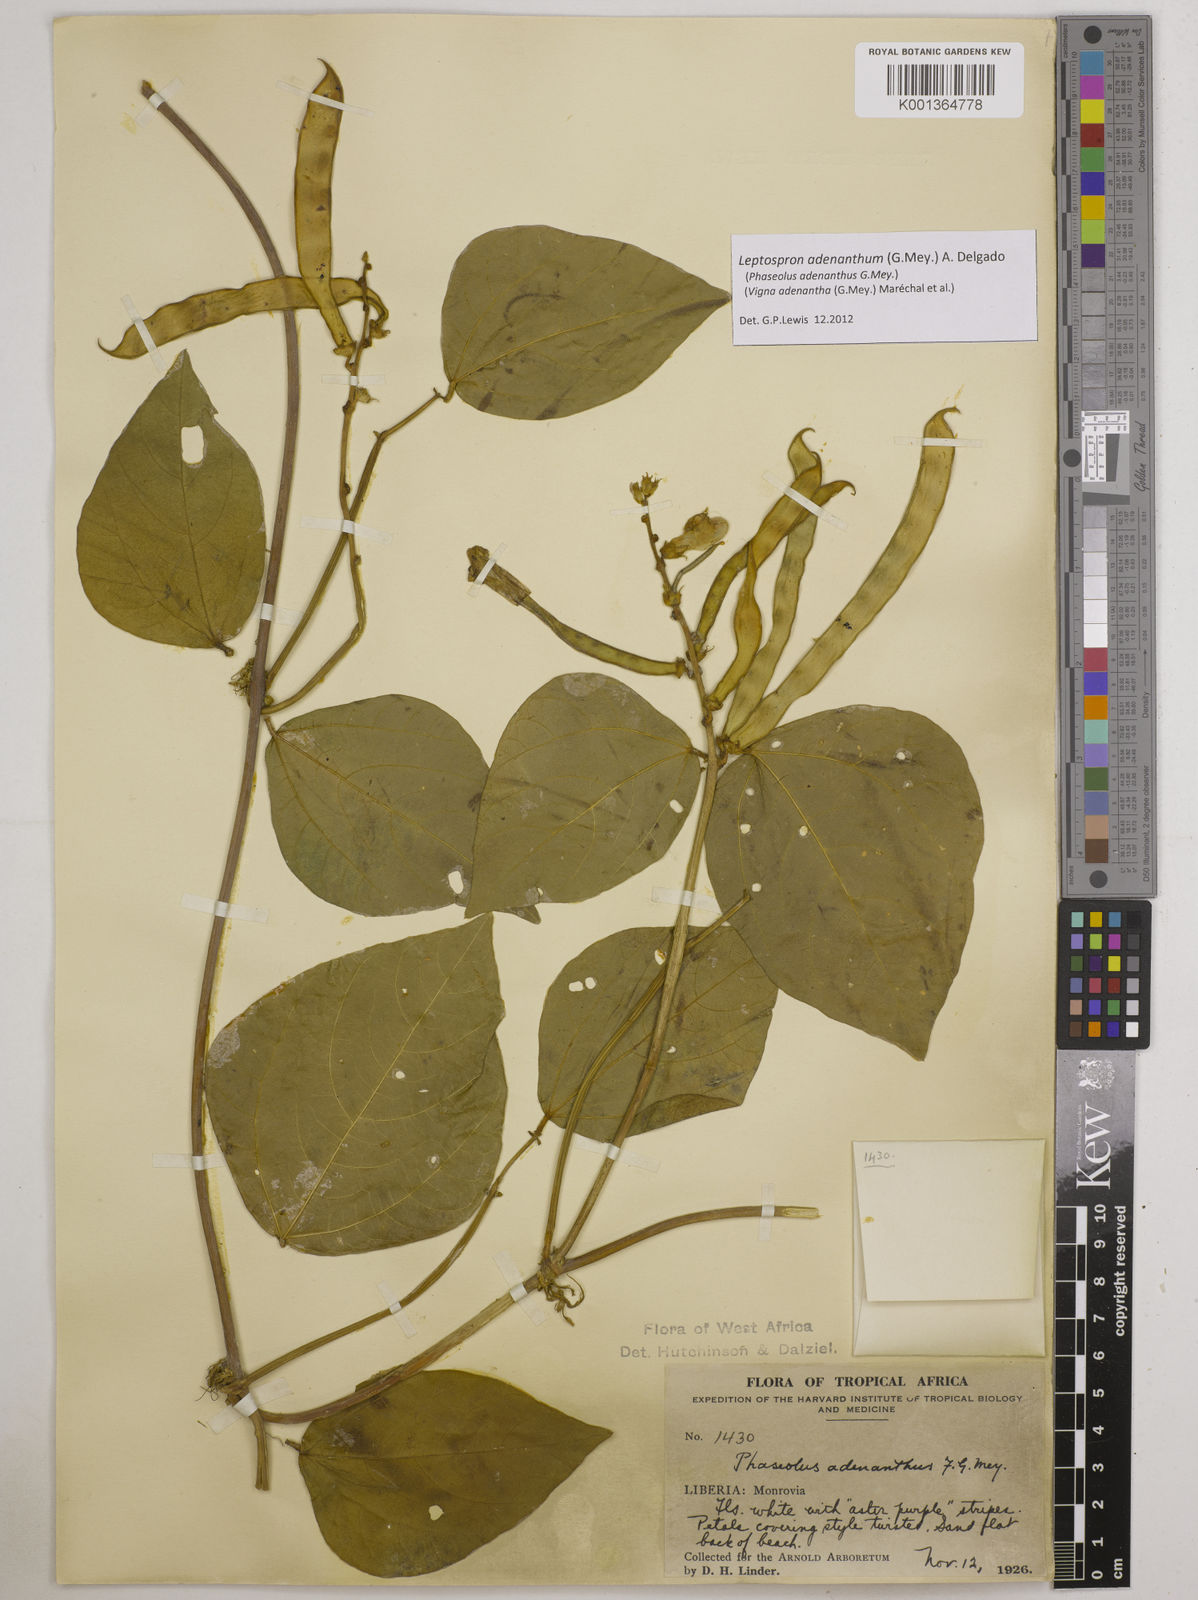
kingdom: Plantae
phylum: Tracheophyta
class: Magnoliopsida
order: Fabales
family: Fabaceae
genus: Leptospron
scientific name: Leptospron adenanthum
